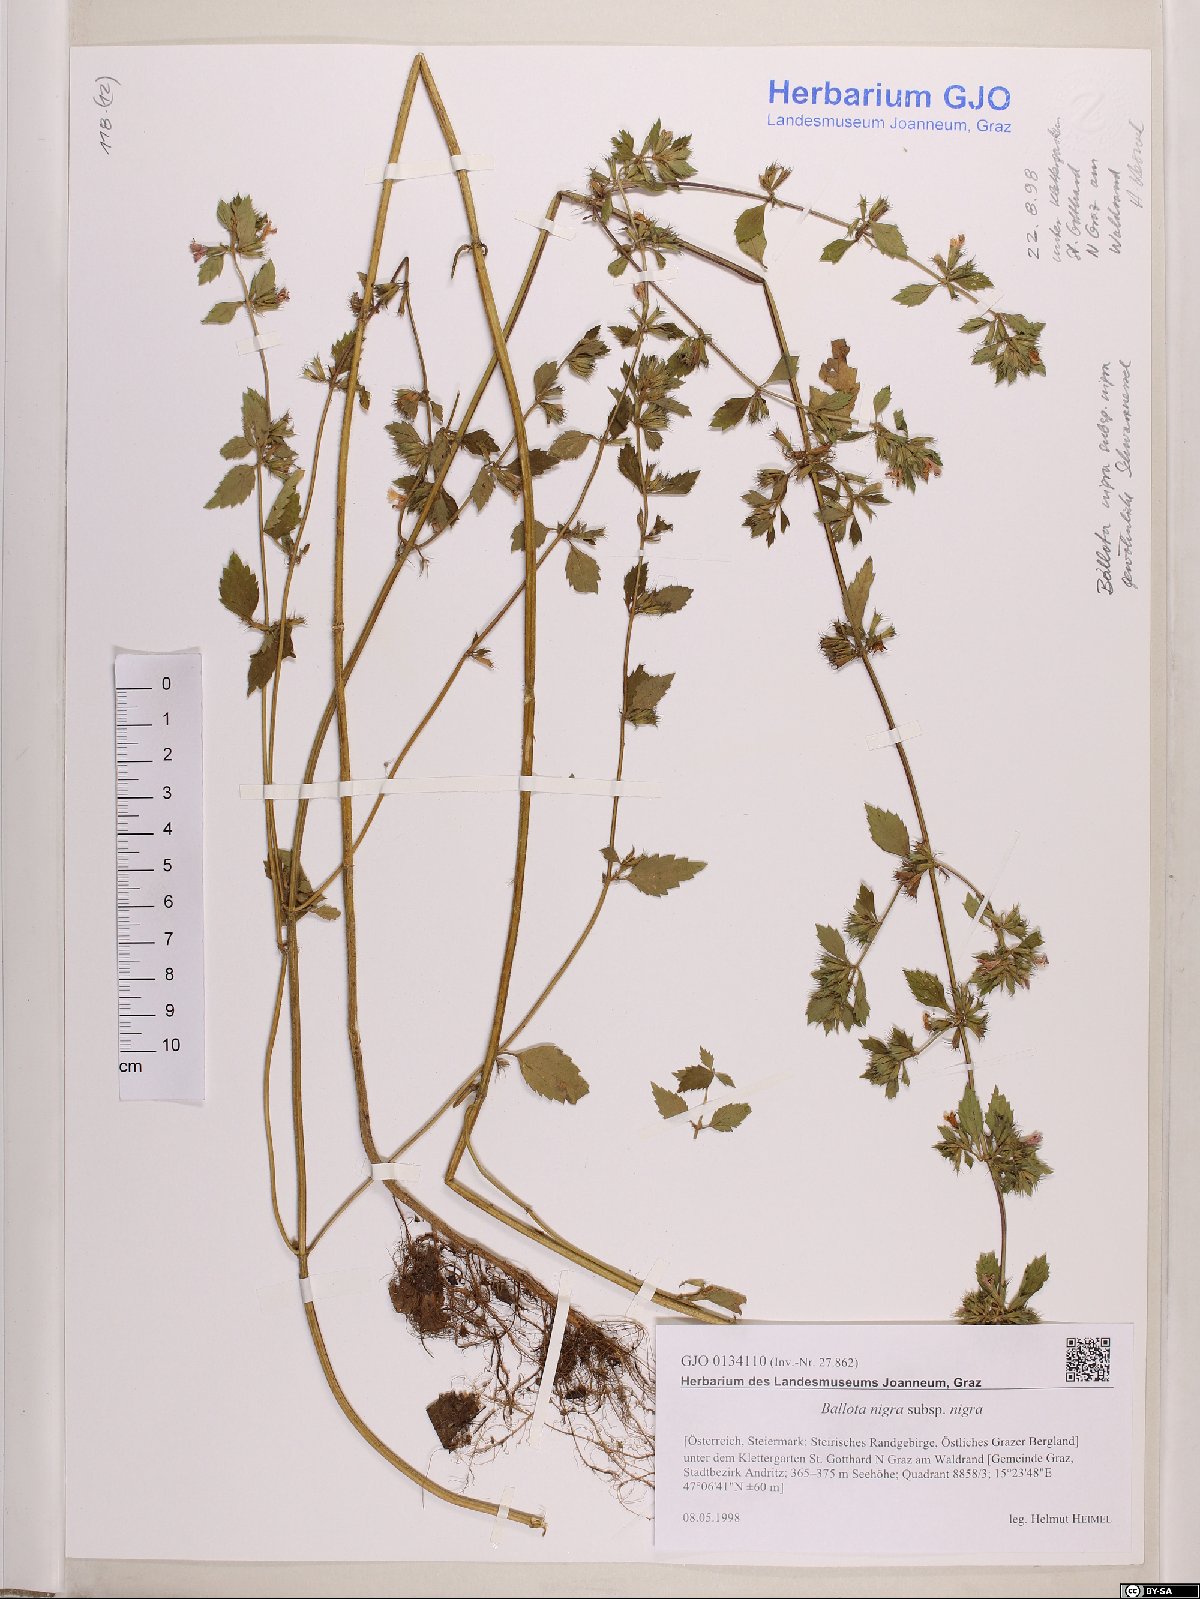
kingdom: Plantae
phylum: Tracheophyta
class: Magnoliopsida
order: Lamiales
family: Lamiaceae
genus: Ballota
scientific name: Ballota nigra
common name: Black horehound
